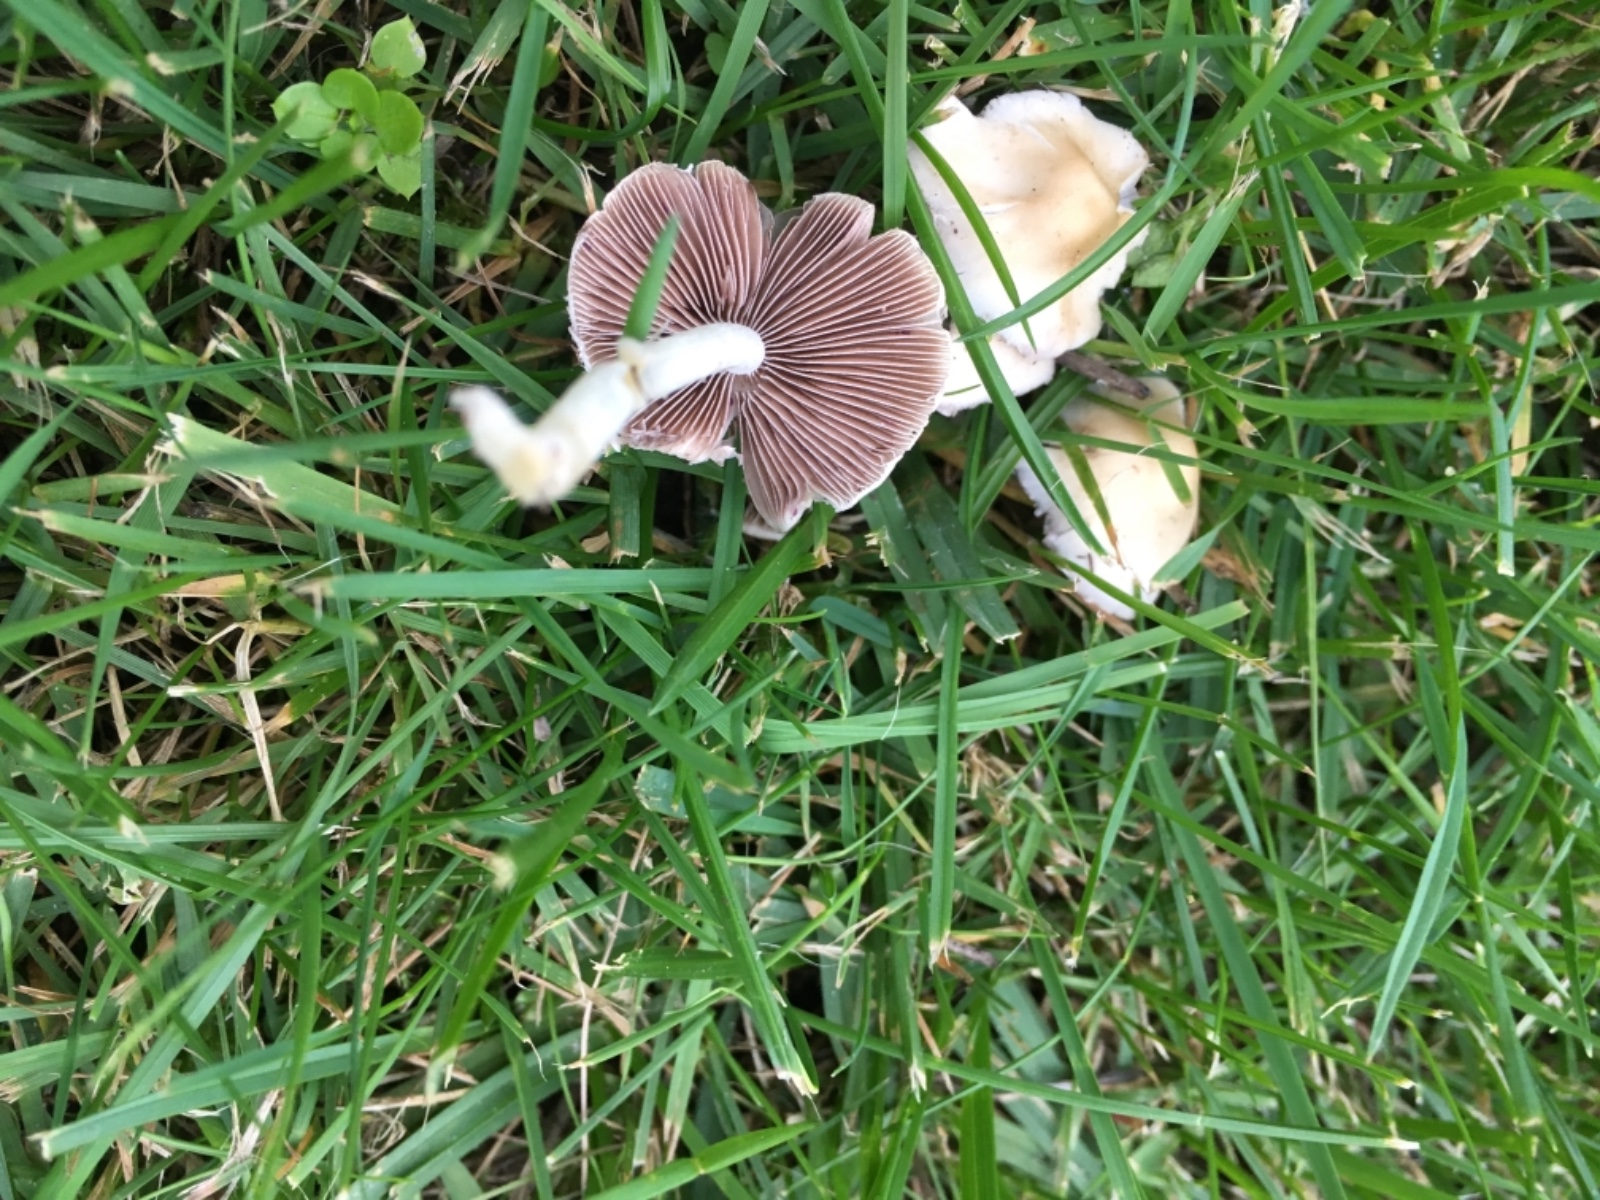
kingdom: Fungi
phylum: Basidiomycota
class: Agaricomycetes
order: Agaricales
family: Psathyrellaceae
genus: Candolleomyces
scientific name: Candolleomyces candolleanus
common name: Candolles mørkhat
